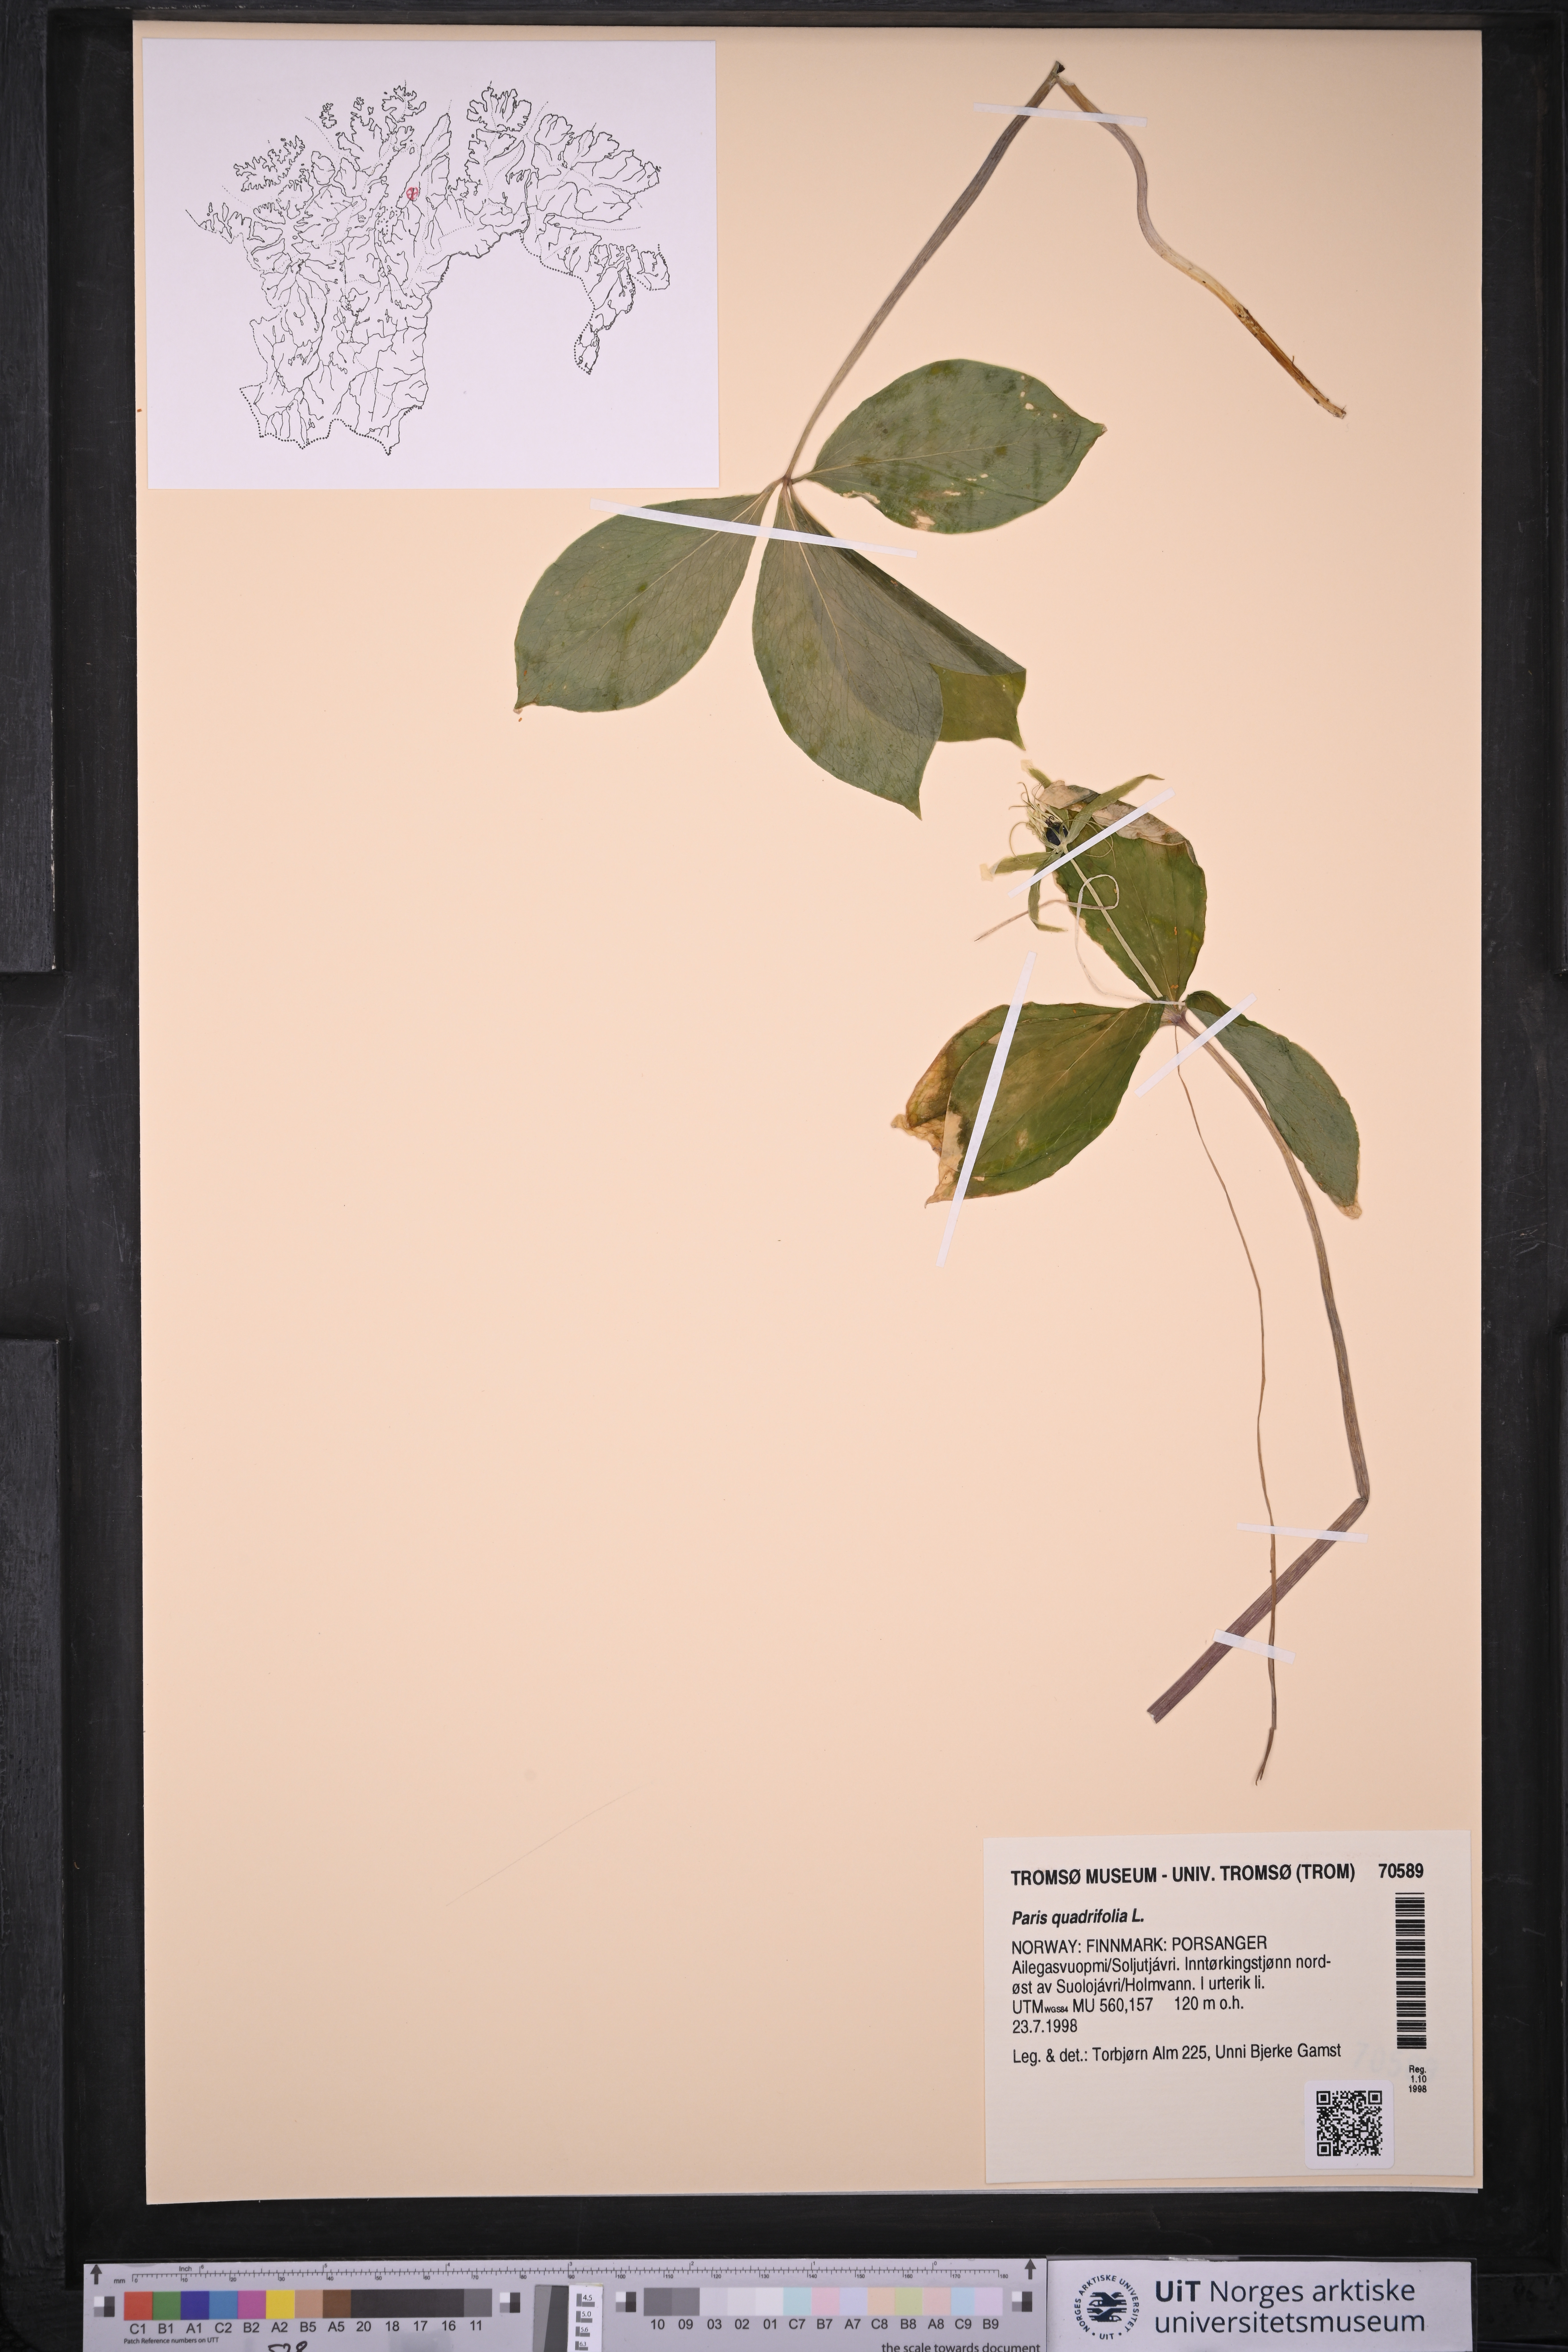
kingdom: Plantae
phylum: Tracheophyta
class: Liliopsida
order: Liliales
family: Melanthiaceae
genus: Paris
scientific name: Paris quadrifolia
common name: Herb-paris
